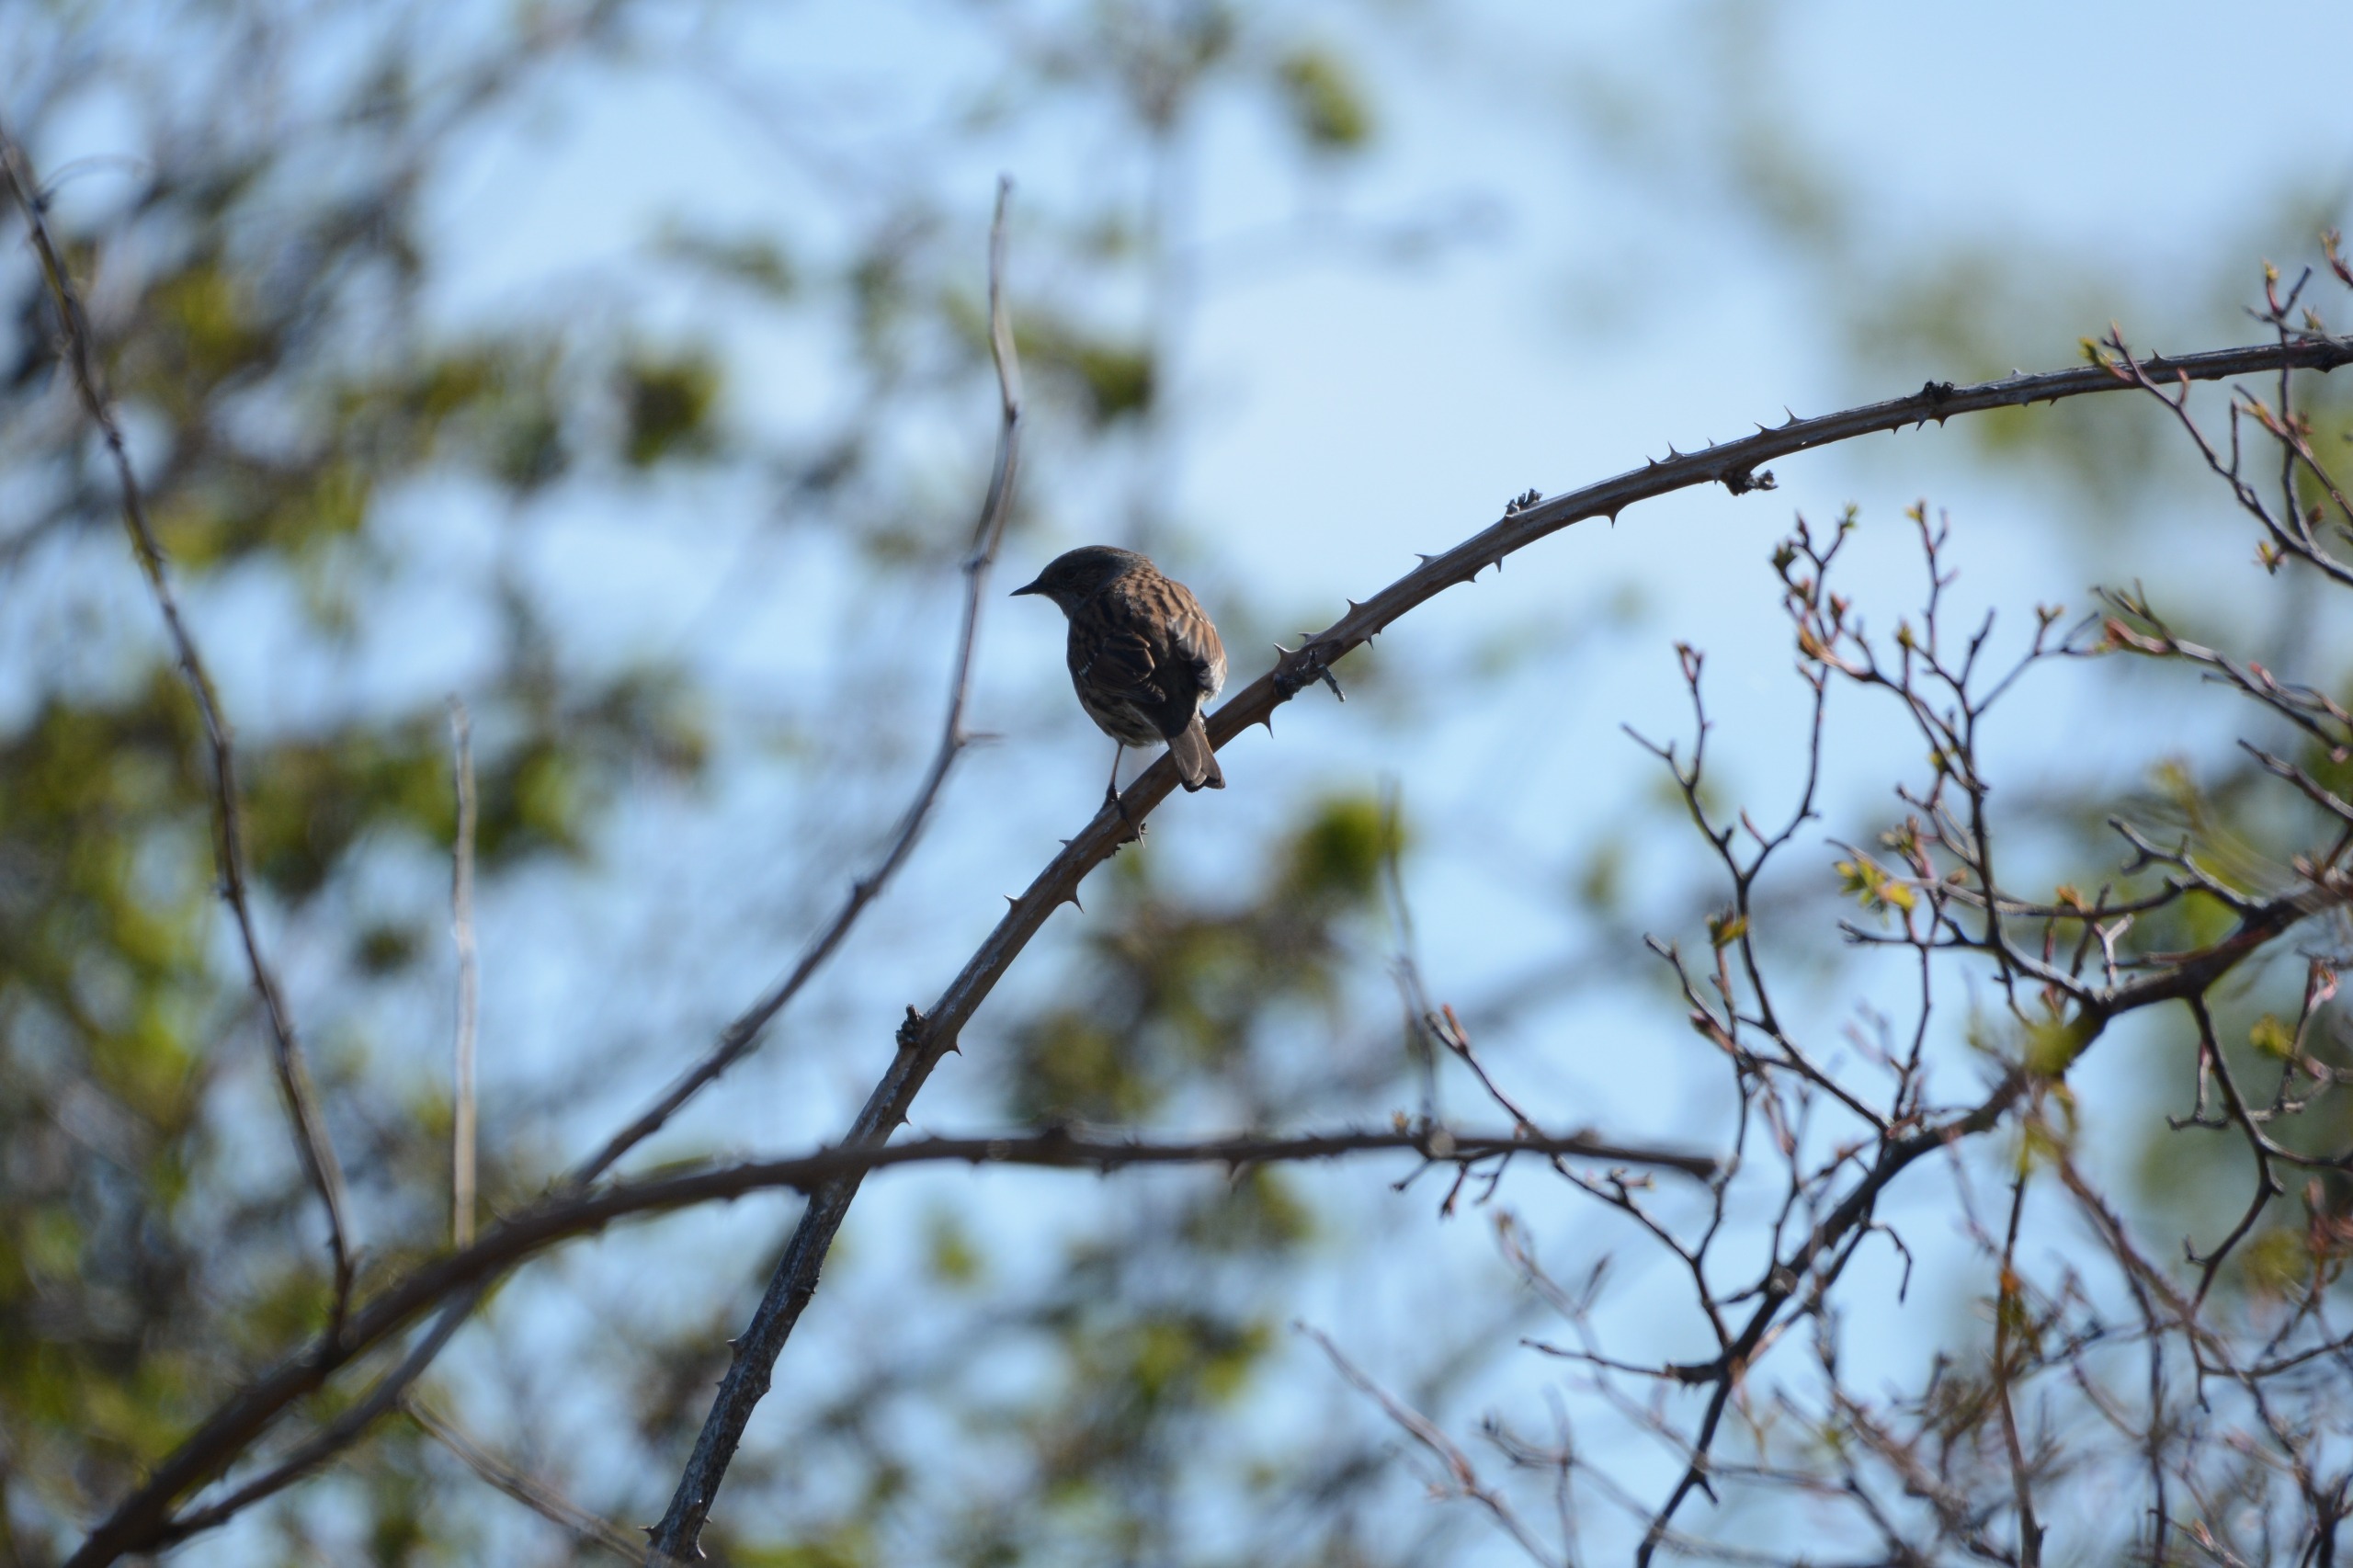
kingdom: Animalia
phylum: Chordata
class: Aves
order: Passeriformes
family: Prunellidae
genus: Prunella
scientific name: Prunella modularis
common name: Jernspurv
